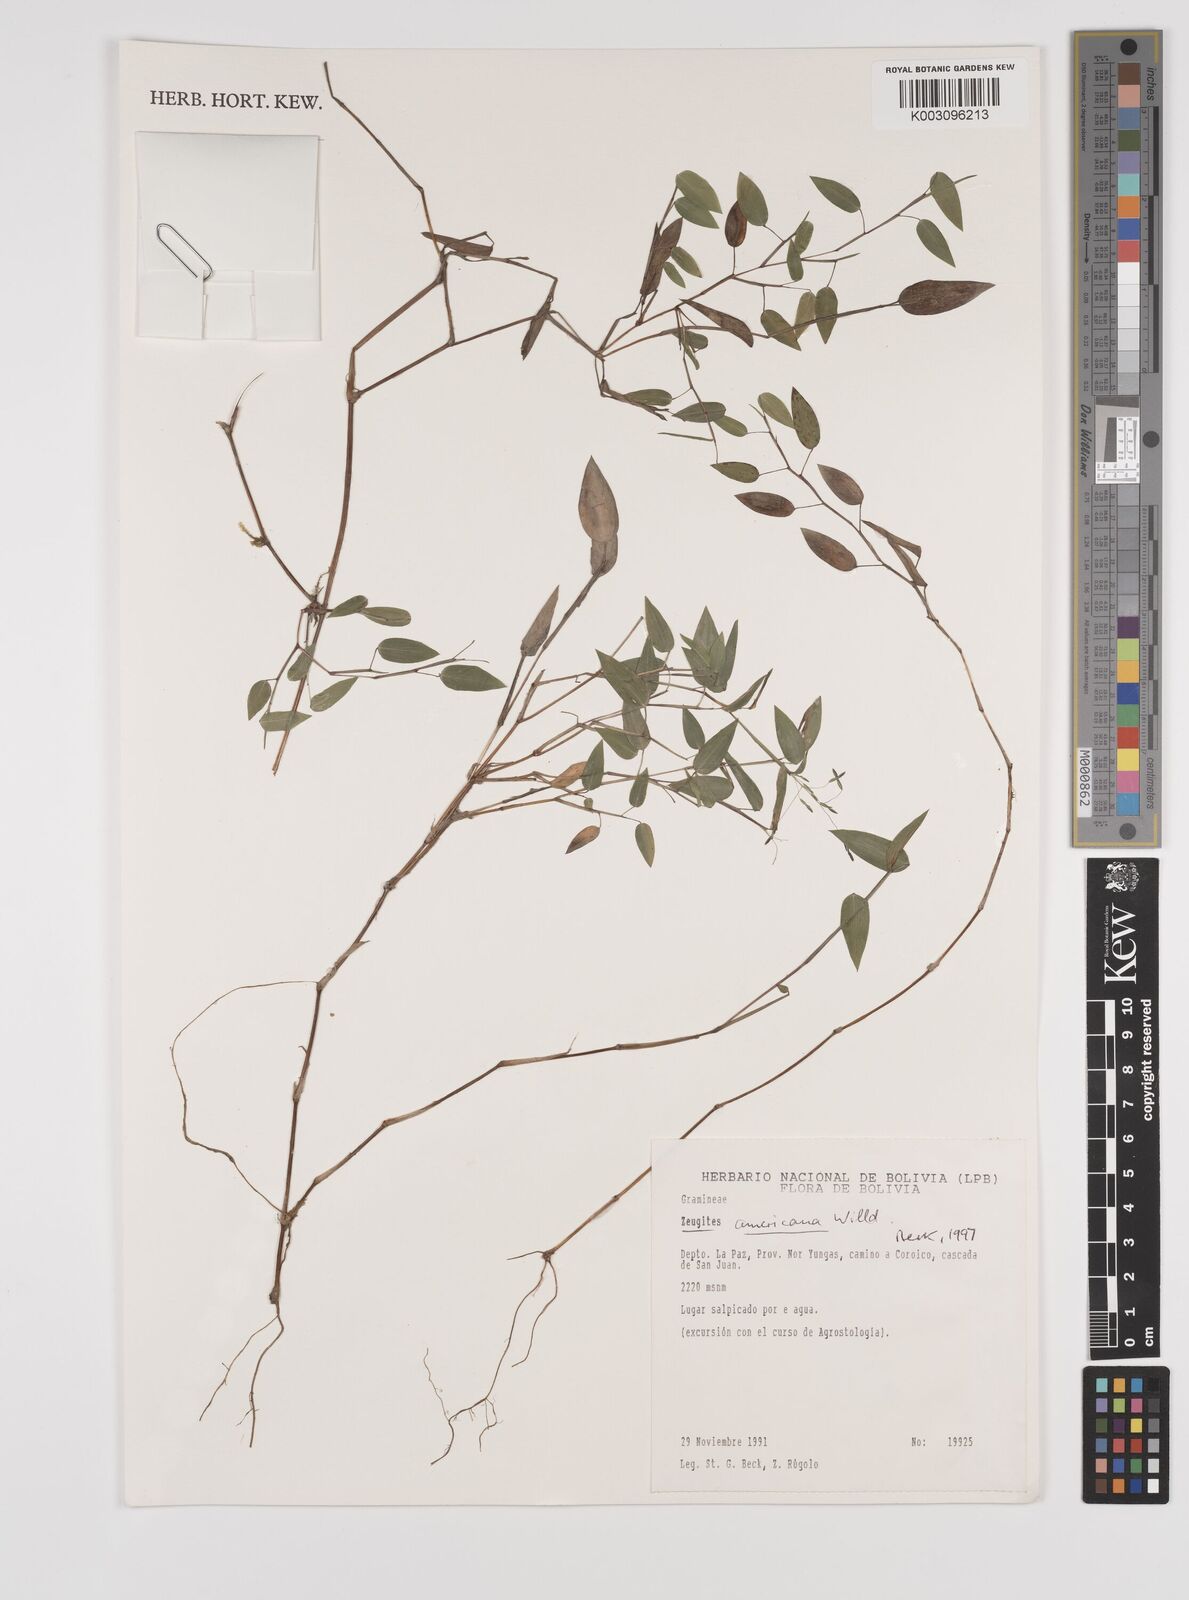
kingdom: Plantae
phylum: Tracheophyta
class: Liliopsida
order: Poales
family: Poaceae
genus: Zeugites
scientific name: Zeugites americanus
